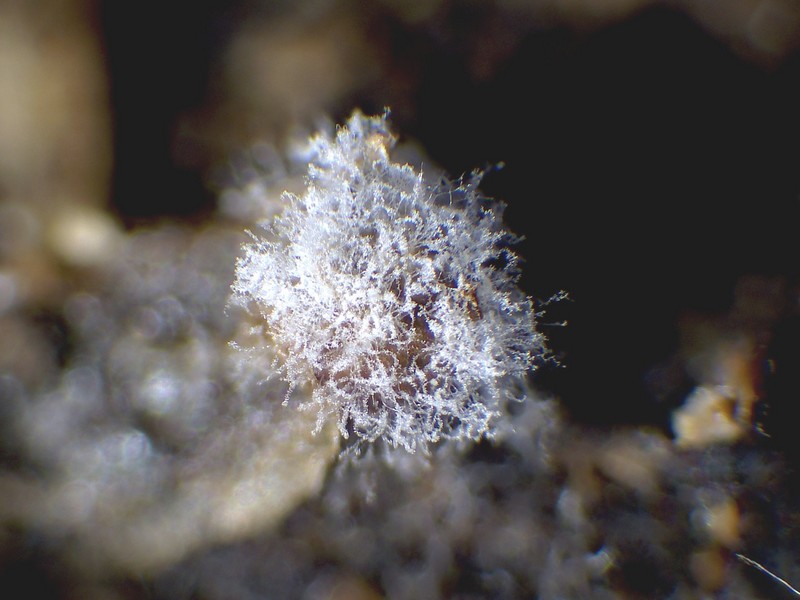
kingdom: Fungi
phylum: Ascomycota
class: Sordariomycetes
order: Hypocreales
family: Bionectriaceae
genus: Nectriopsis
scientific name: Nectriopsis sporangiicola
